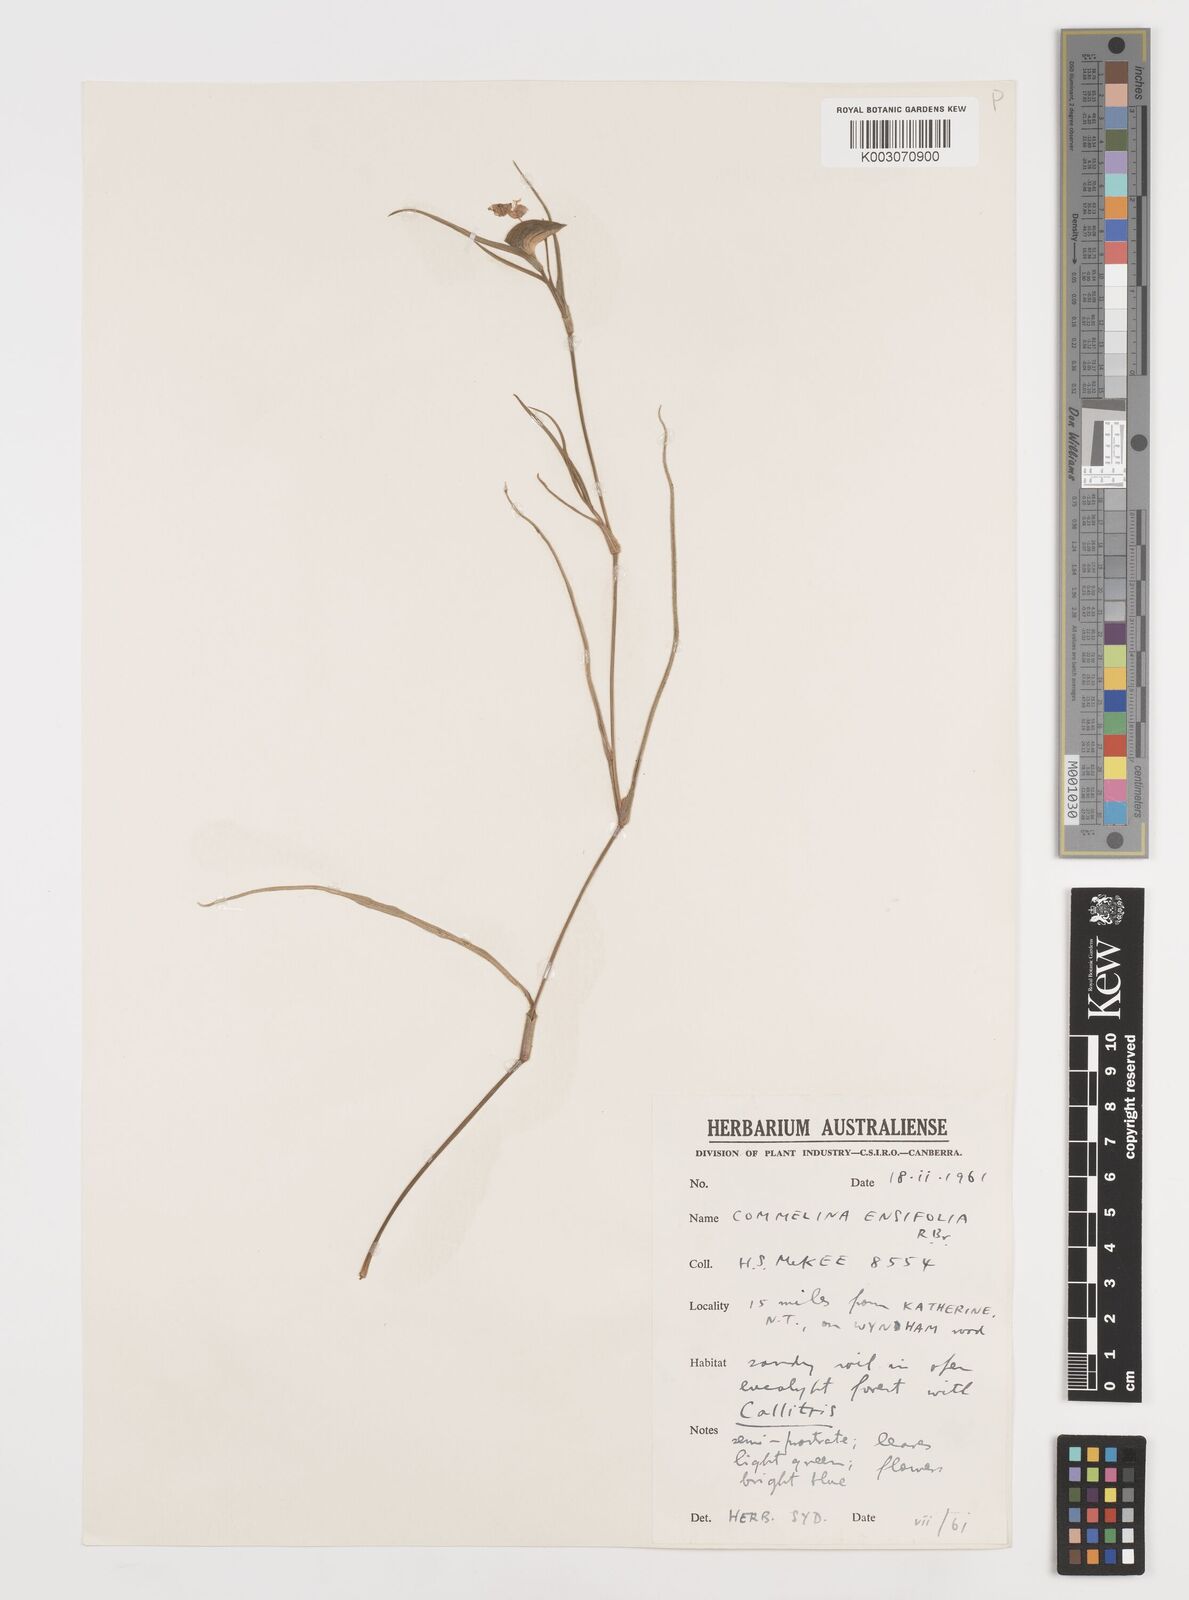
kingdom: Plantae
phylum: Tracheophyta
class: Liliopsida
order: Commelinales
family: Commelinaceae
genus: Commelina
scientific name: Commelina ensifolia
